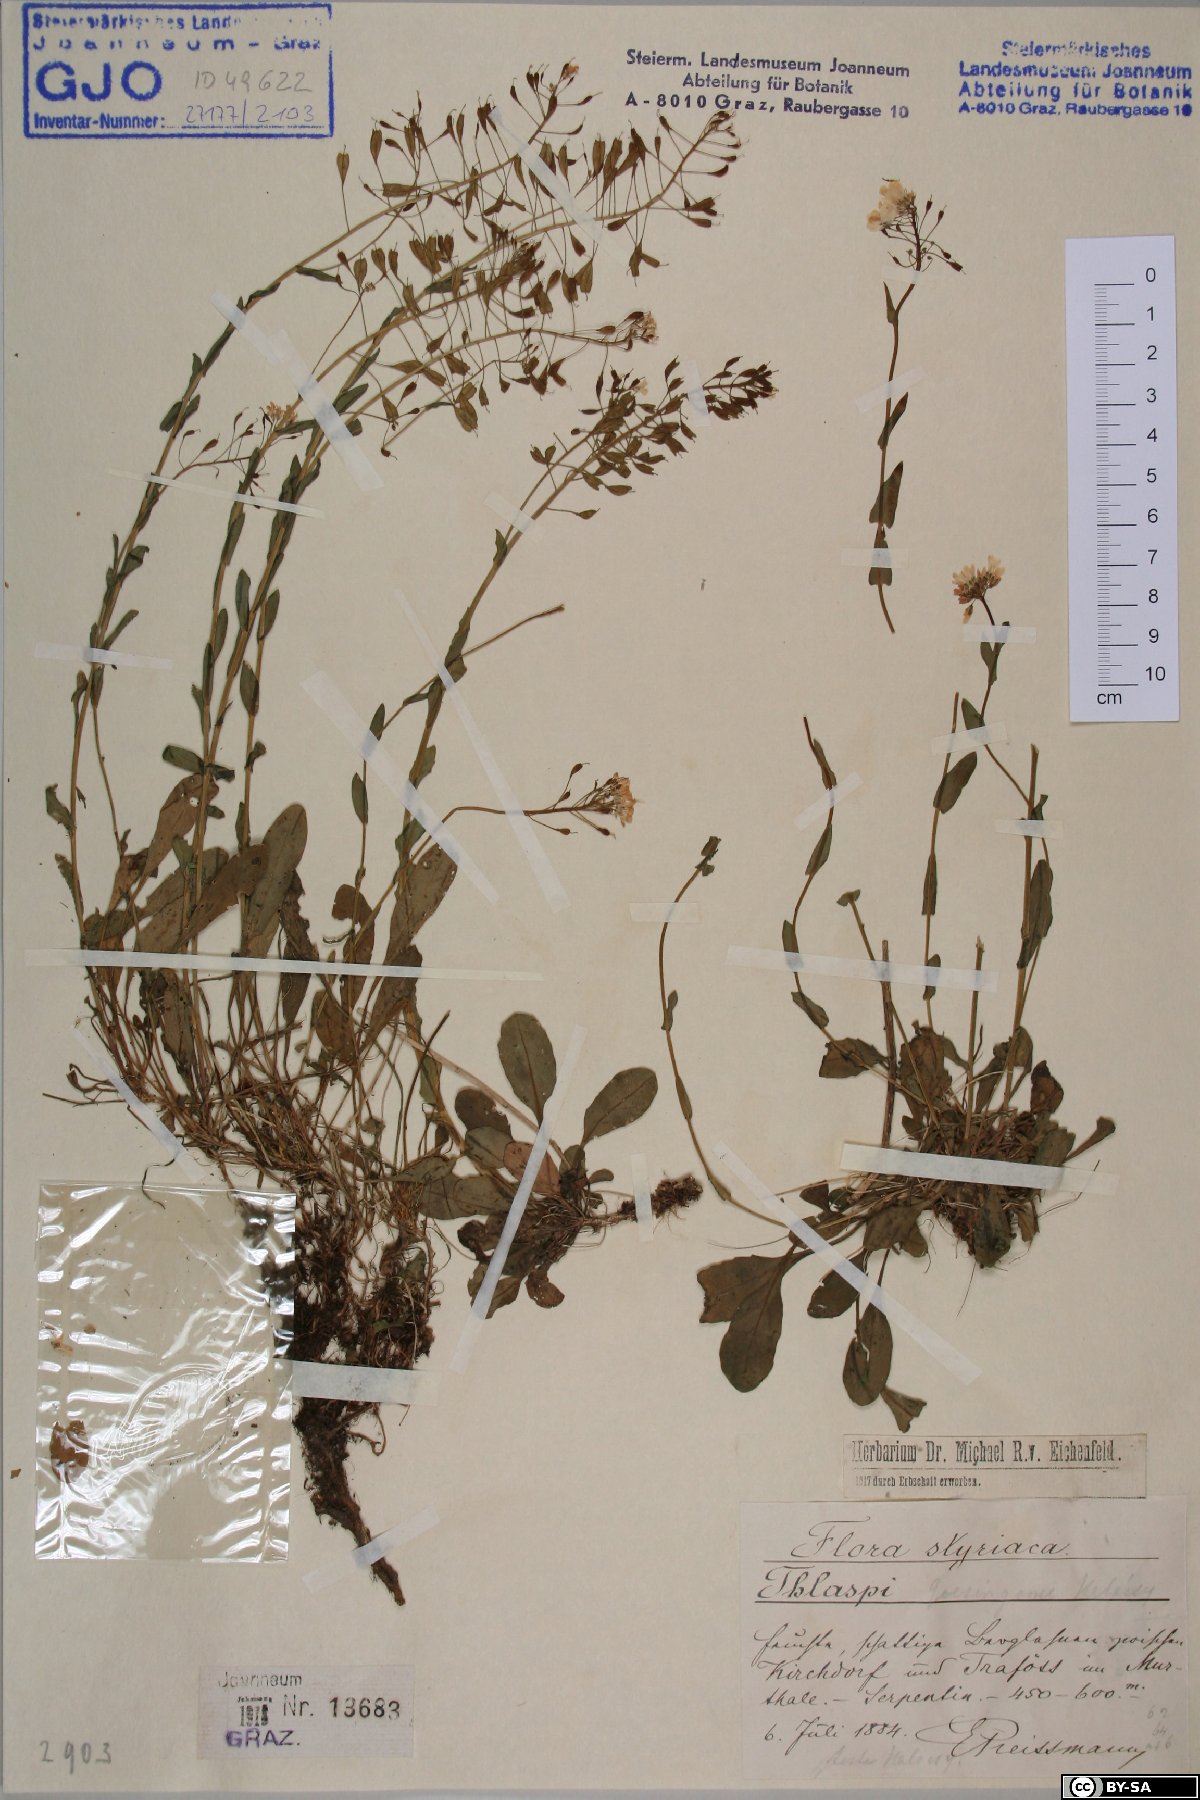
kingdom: Plantae
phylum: Tracheophyta
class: Magnoliopsida
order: Brassicales
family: Brassicaceae
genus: Noccaea
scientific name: Noccaea goesingensis
